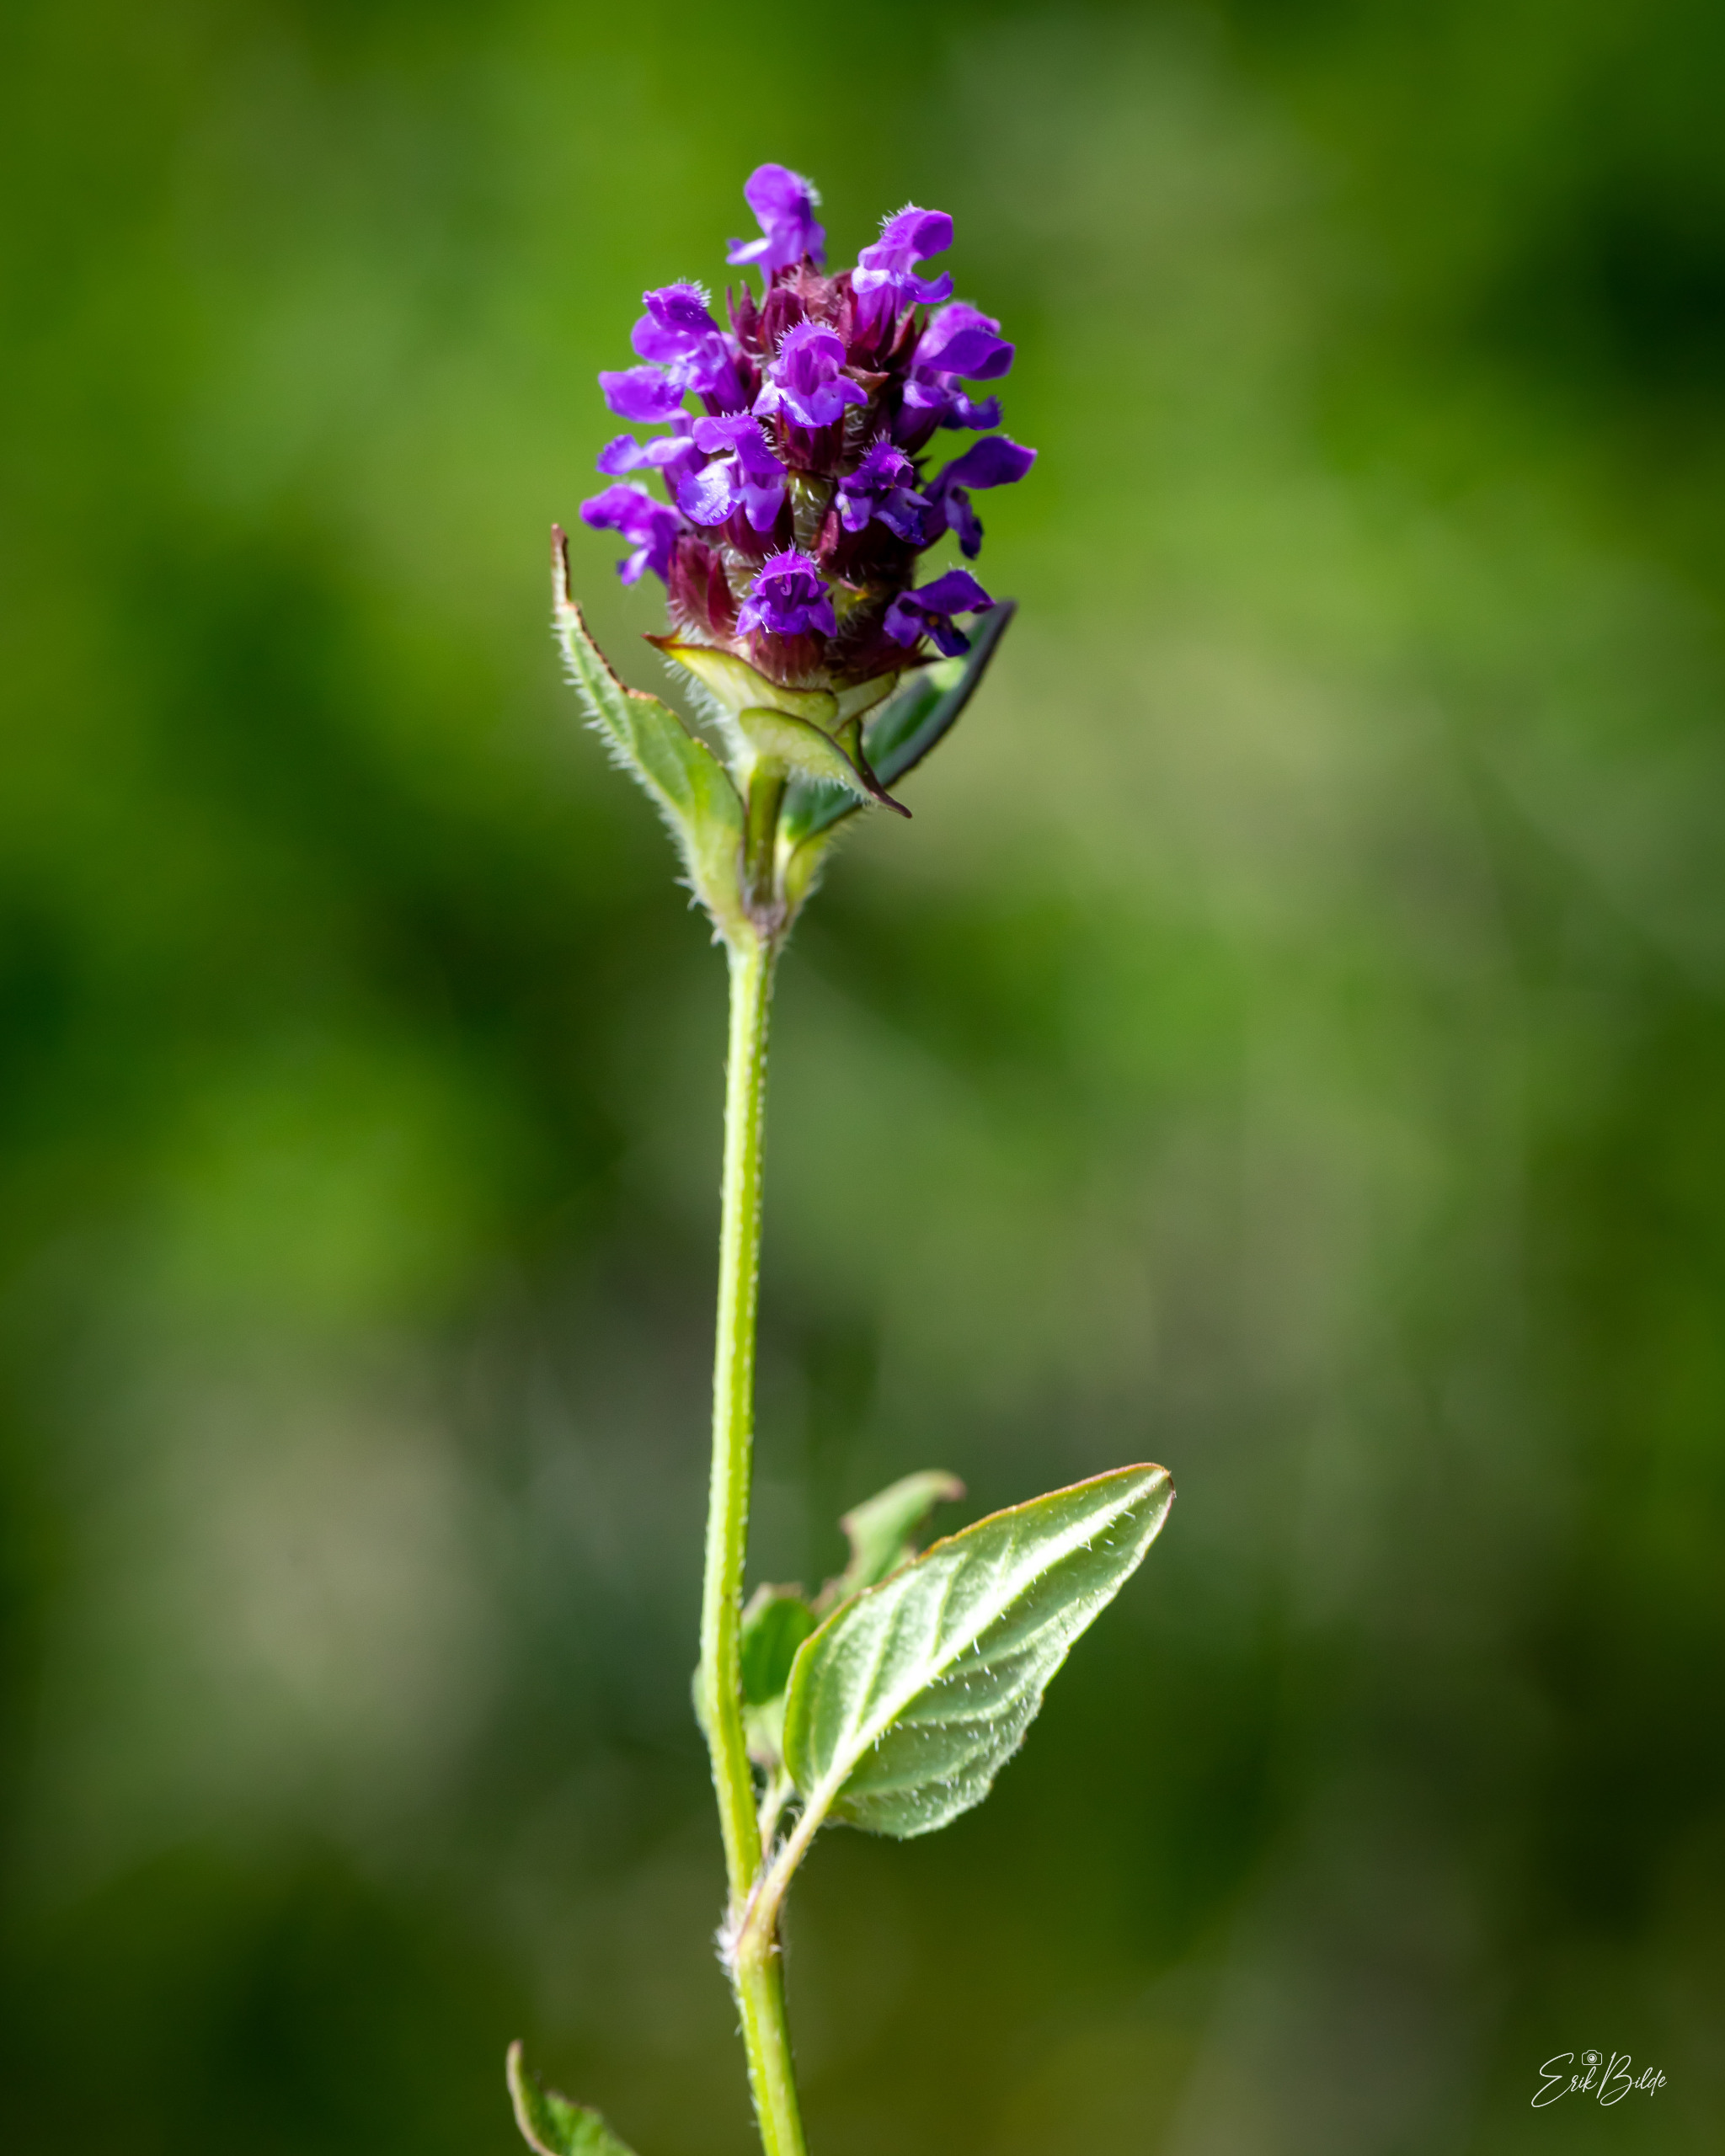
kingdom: Plantae
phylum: Tracheophyta
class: Magnoliopsida
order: Lamiales
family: Lamiaceae
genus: Prunella
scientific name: Prunella vulgaris
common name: Almindelig brunelle
